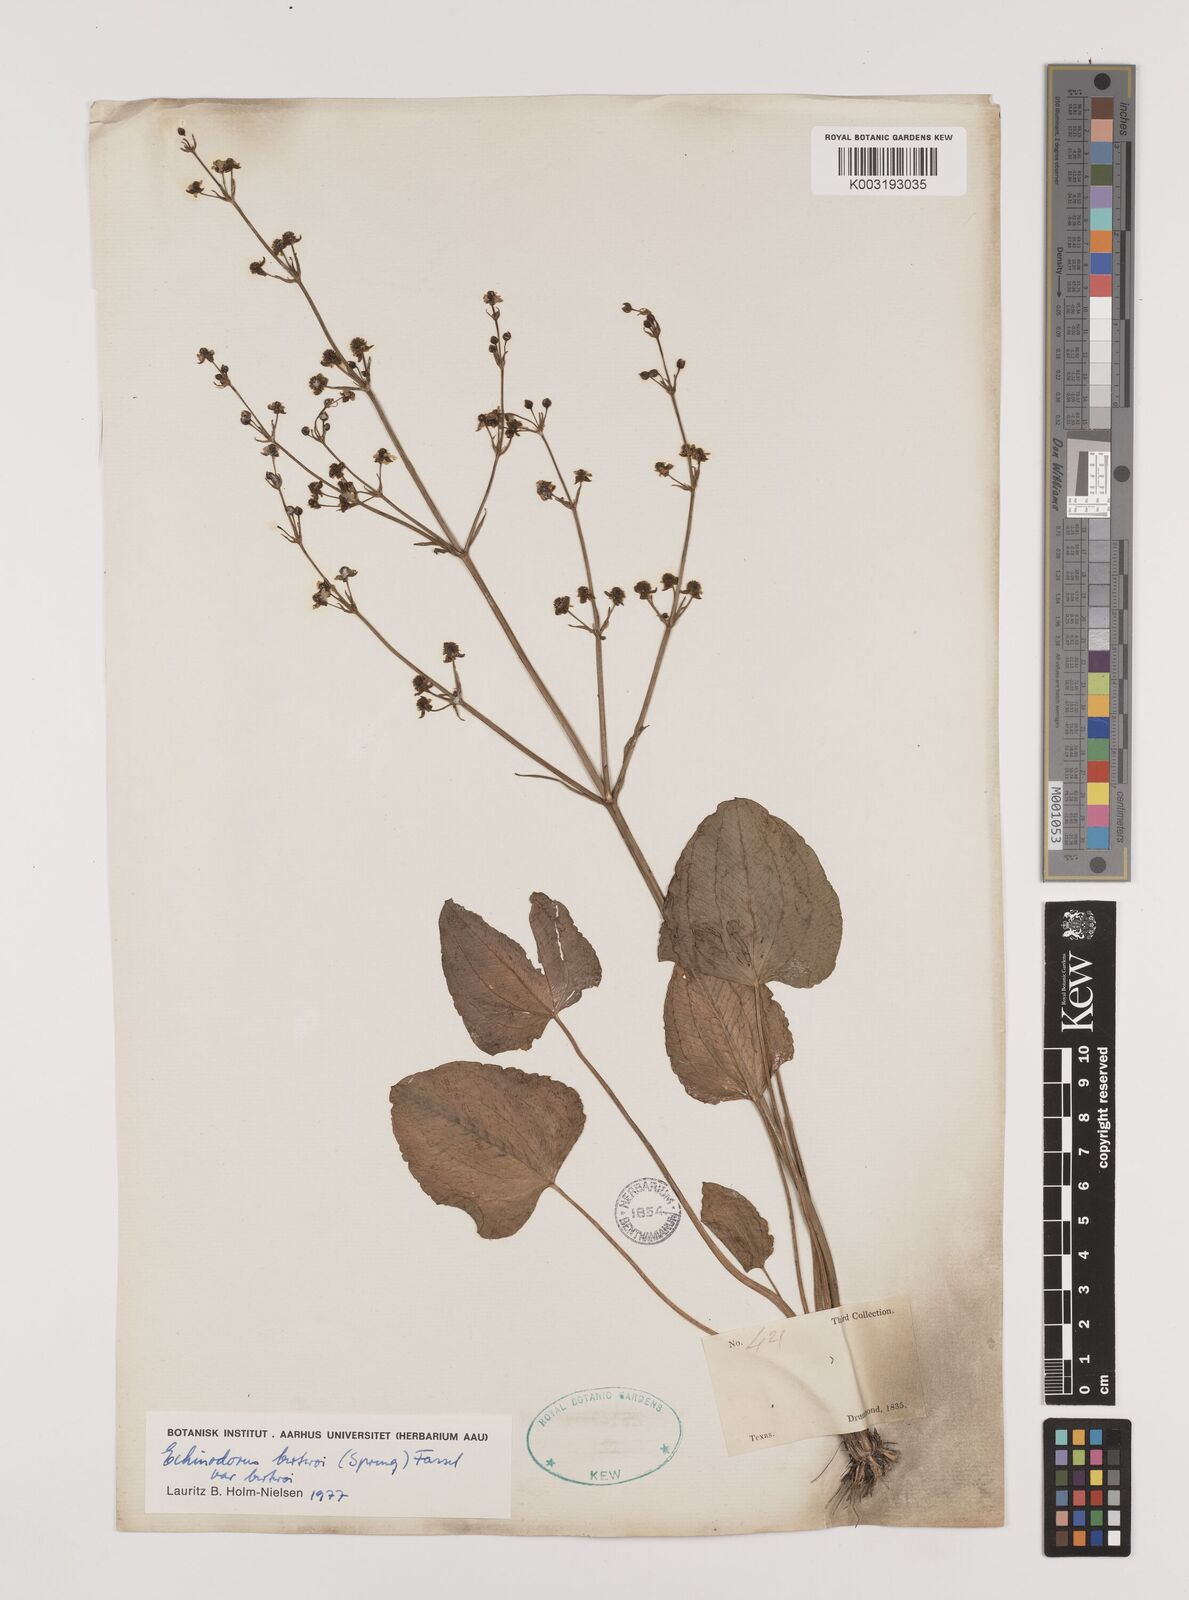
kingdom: Plantae
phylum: Tracheophyta
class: Liliopsida
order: Alismatales
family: Alismataceae
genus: Echinodorus
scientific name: Echinodorus berteroi
